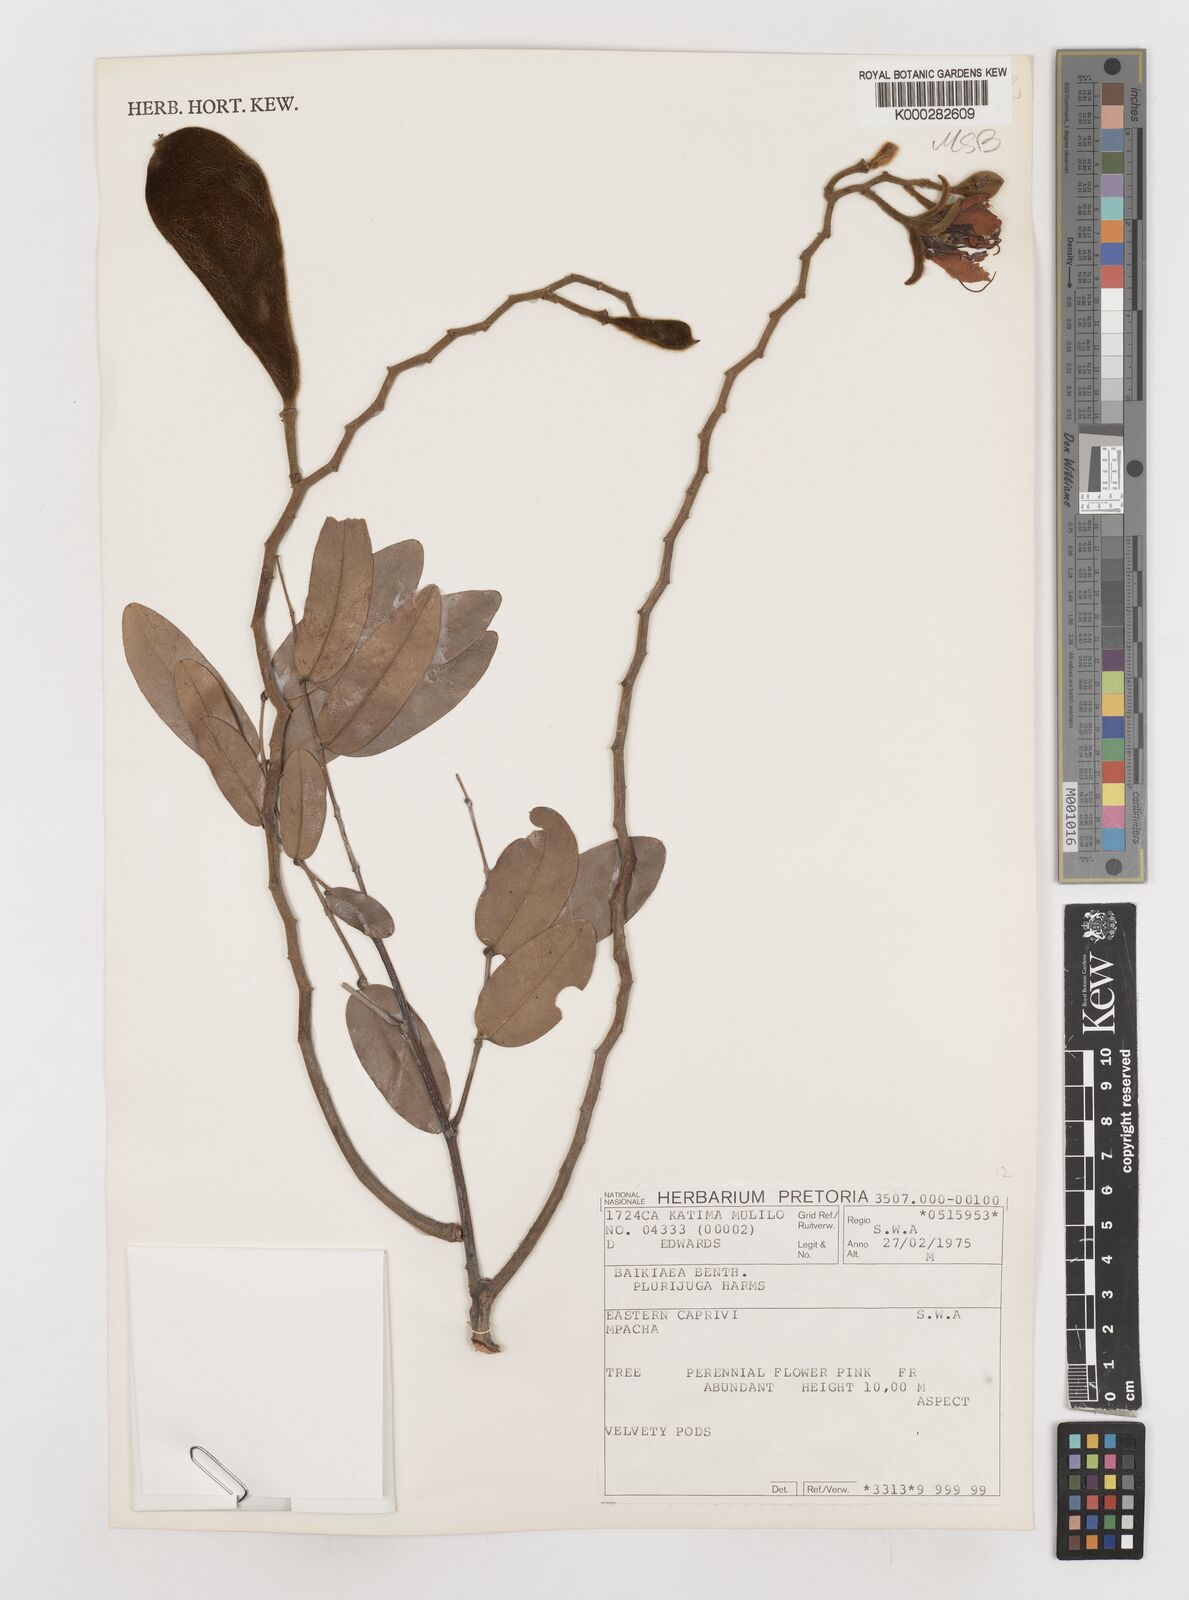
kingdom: Plantae
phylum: Tracheophyta
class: Magnoliopsida
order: Fabales
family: Fabaceae
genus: Baikiaea
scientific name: Baikiaea plurijuga
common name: Rhodesian-teak
